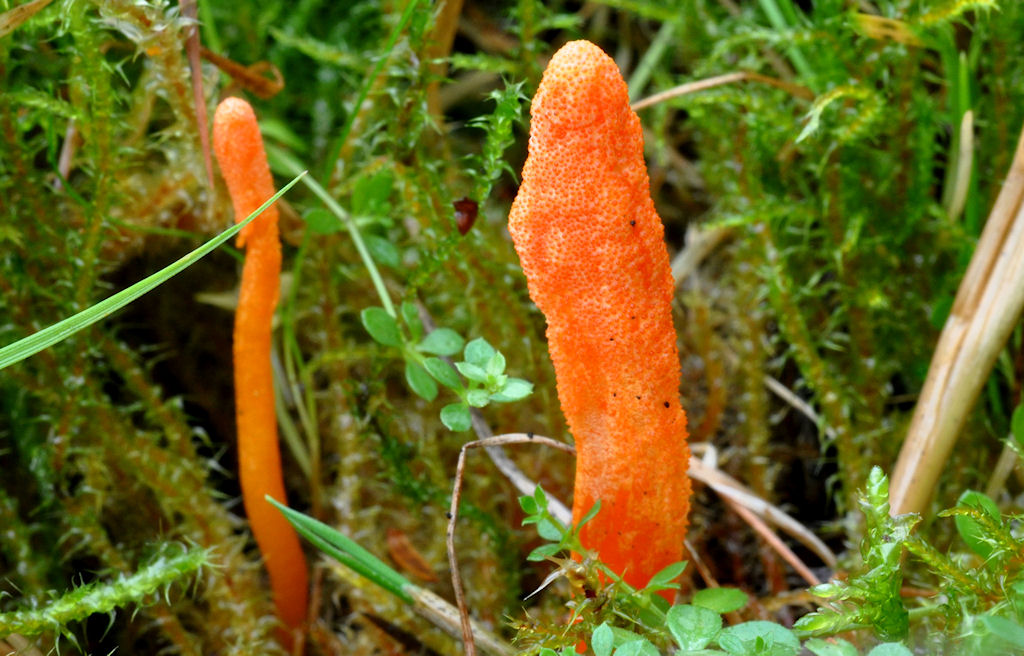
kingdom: Fungi
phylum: Ascomycota
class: Sordariomycetes
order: Hypocreales
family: Cordycipitaceae
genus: Cordyceps
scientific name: Cordyceps militaris
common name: puppe-snyltekølle
